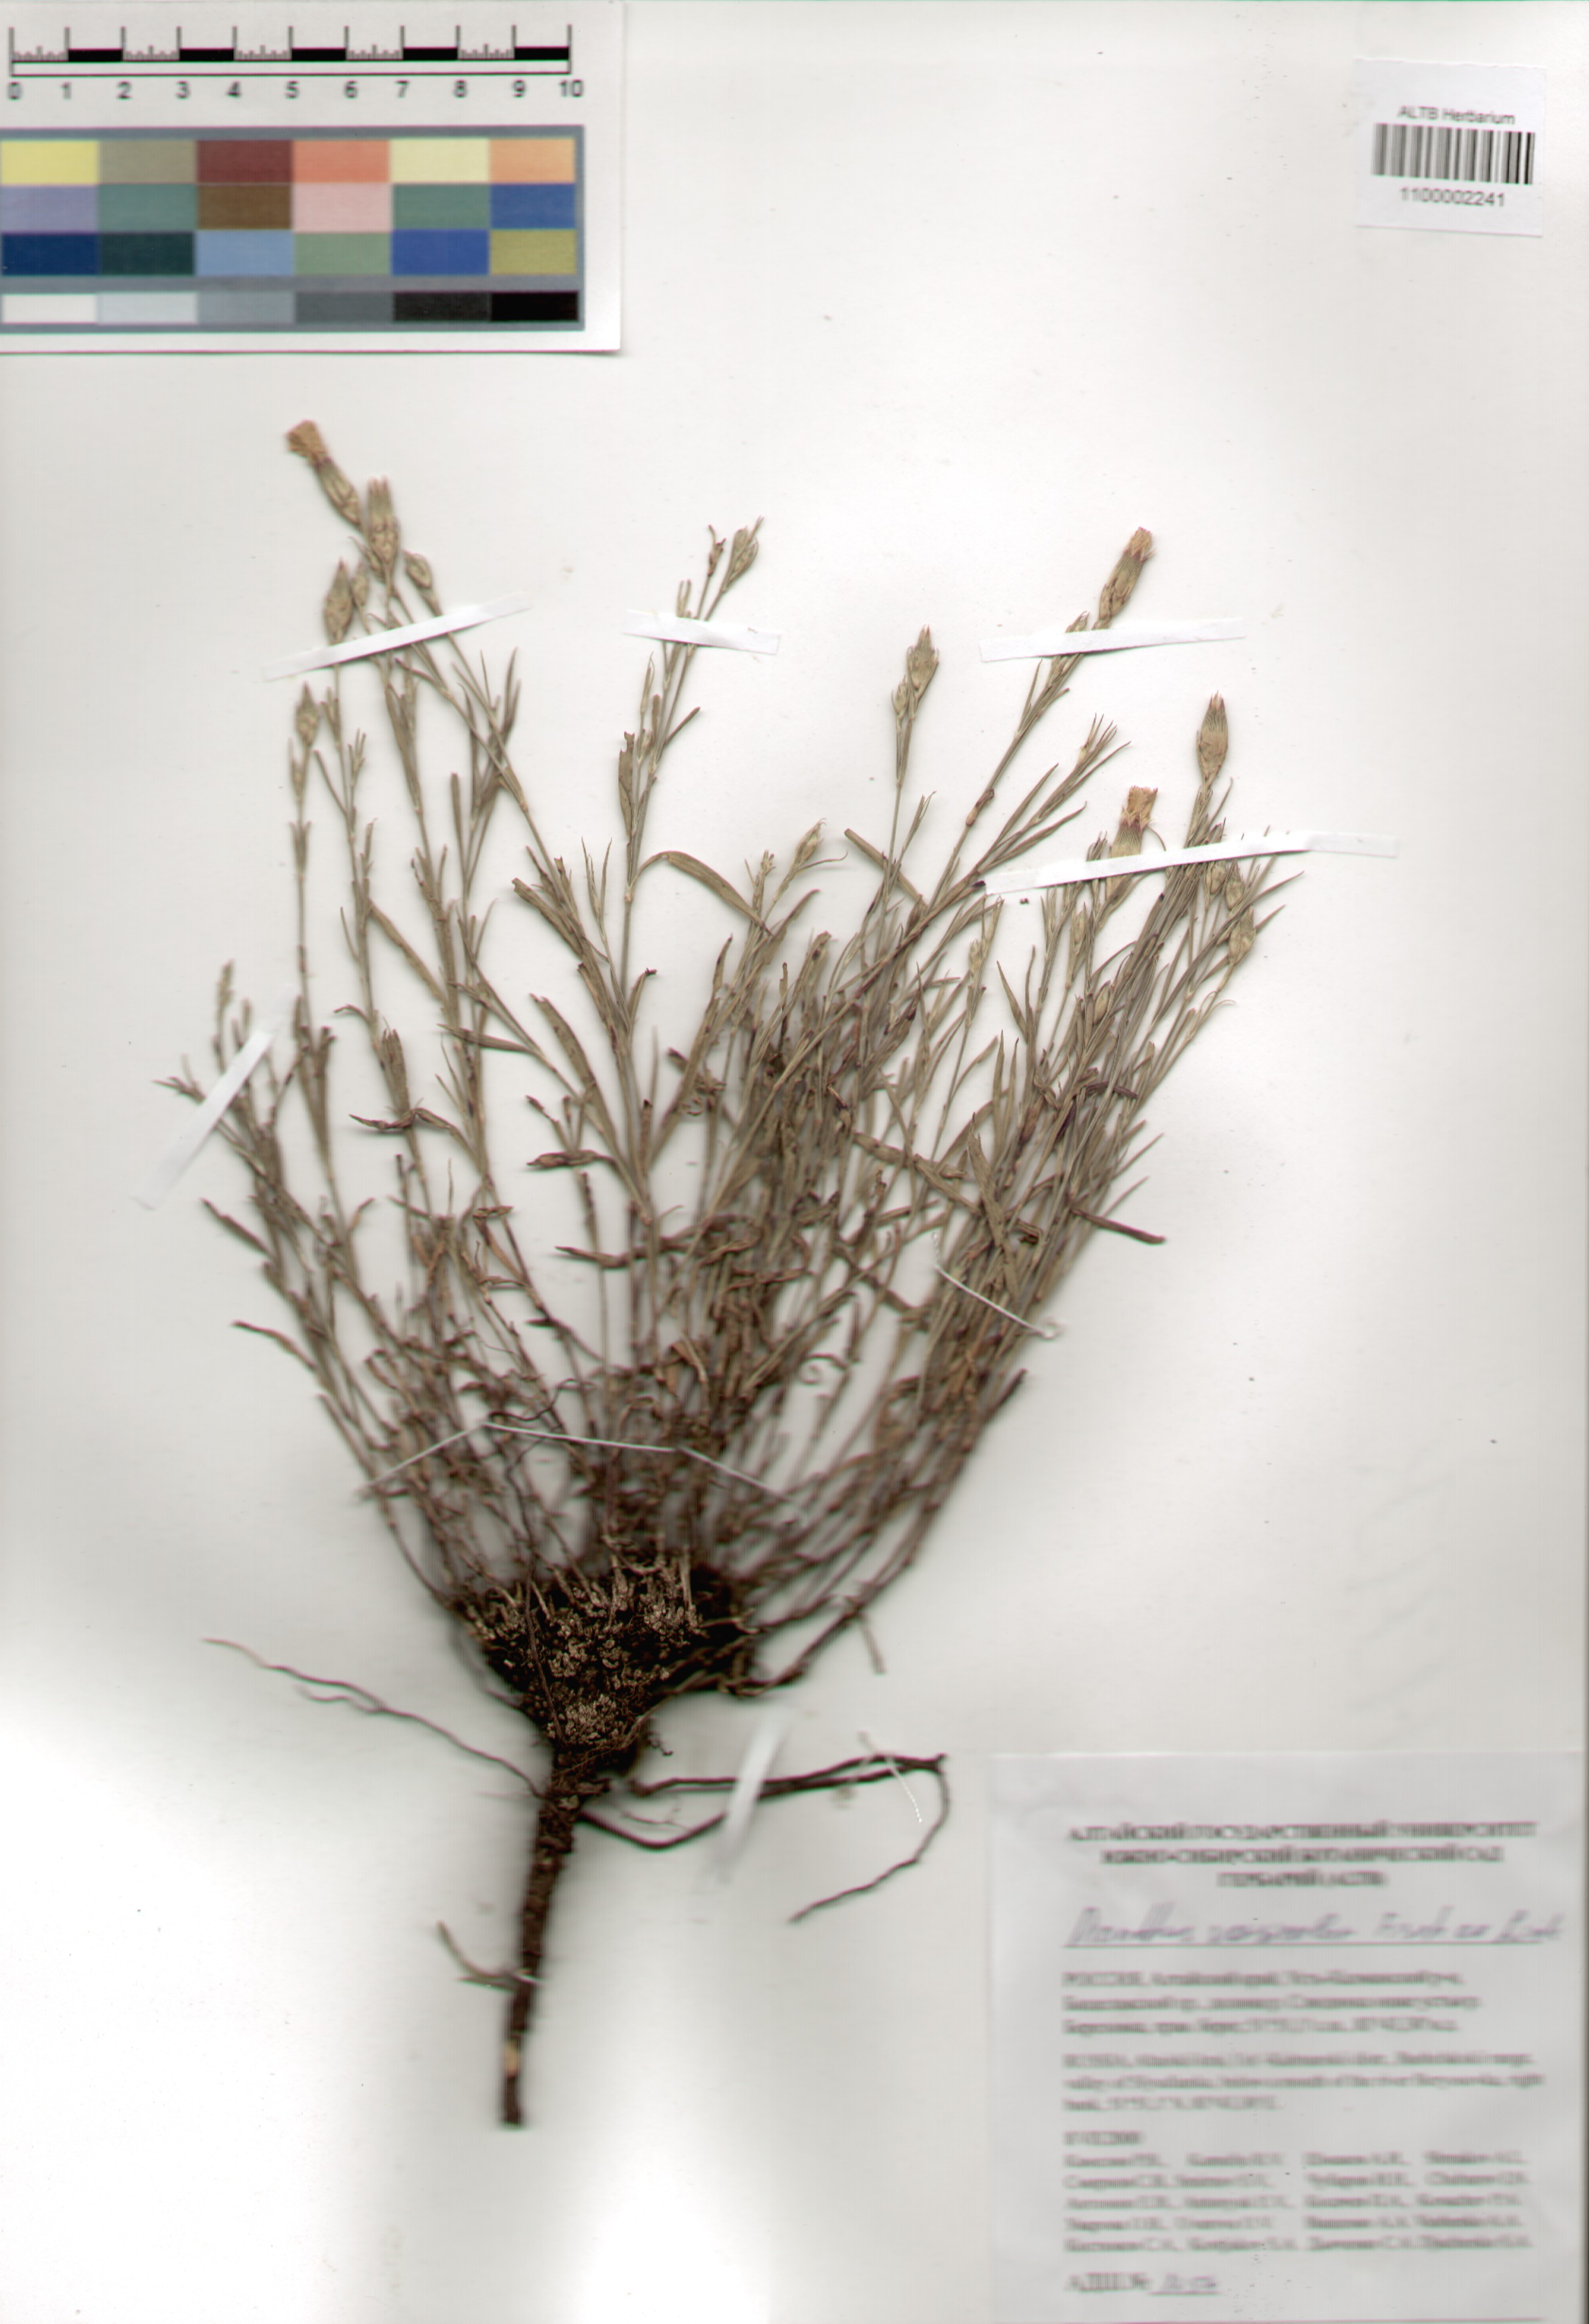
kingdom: Plantae
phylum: Tracheophyta
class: Magnoliopsida
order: Caryophyllales
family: Caryophyllaceae
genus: Dianthus
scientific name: Dianthus chinensis
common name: Rainbow pink
